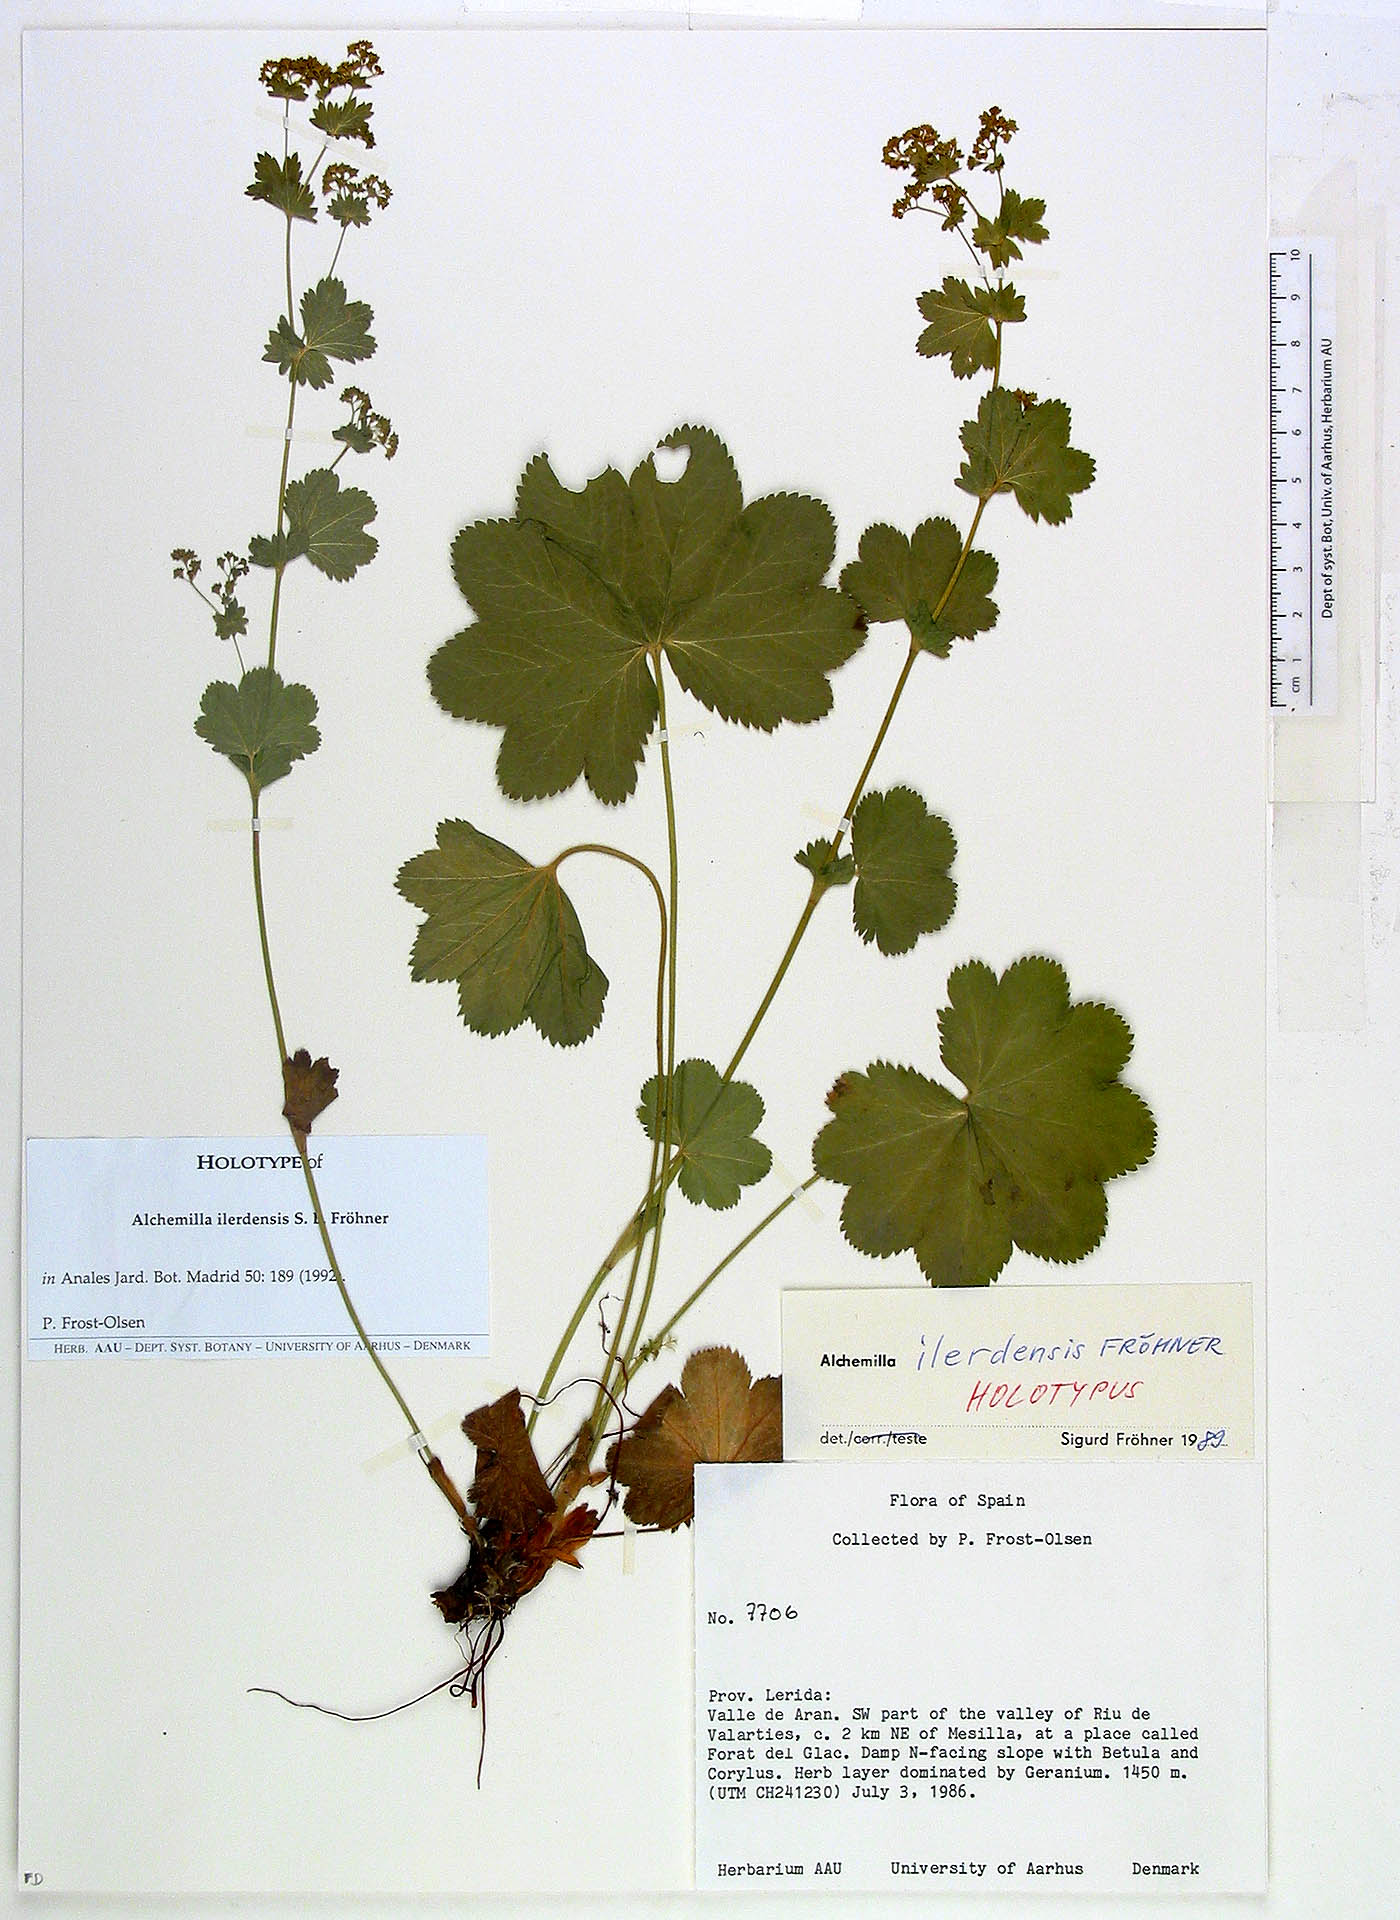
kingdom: Plantae
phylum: Tracheophyta
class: Magnoliopsida
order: Rosales
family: Rosaceae
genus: Alchemilla
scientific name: Alchemilla ilerdensis
